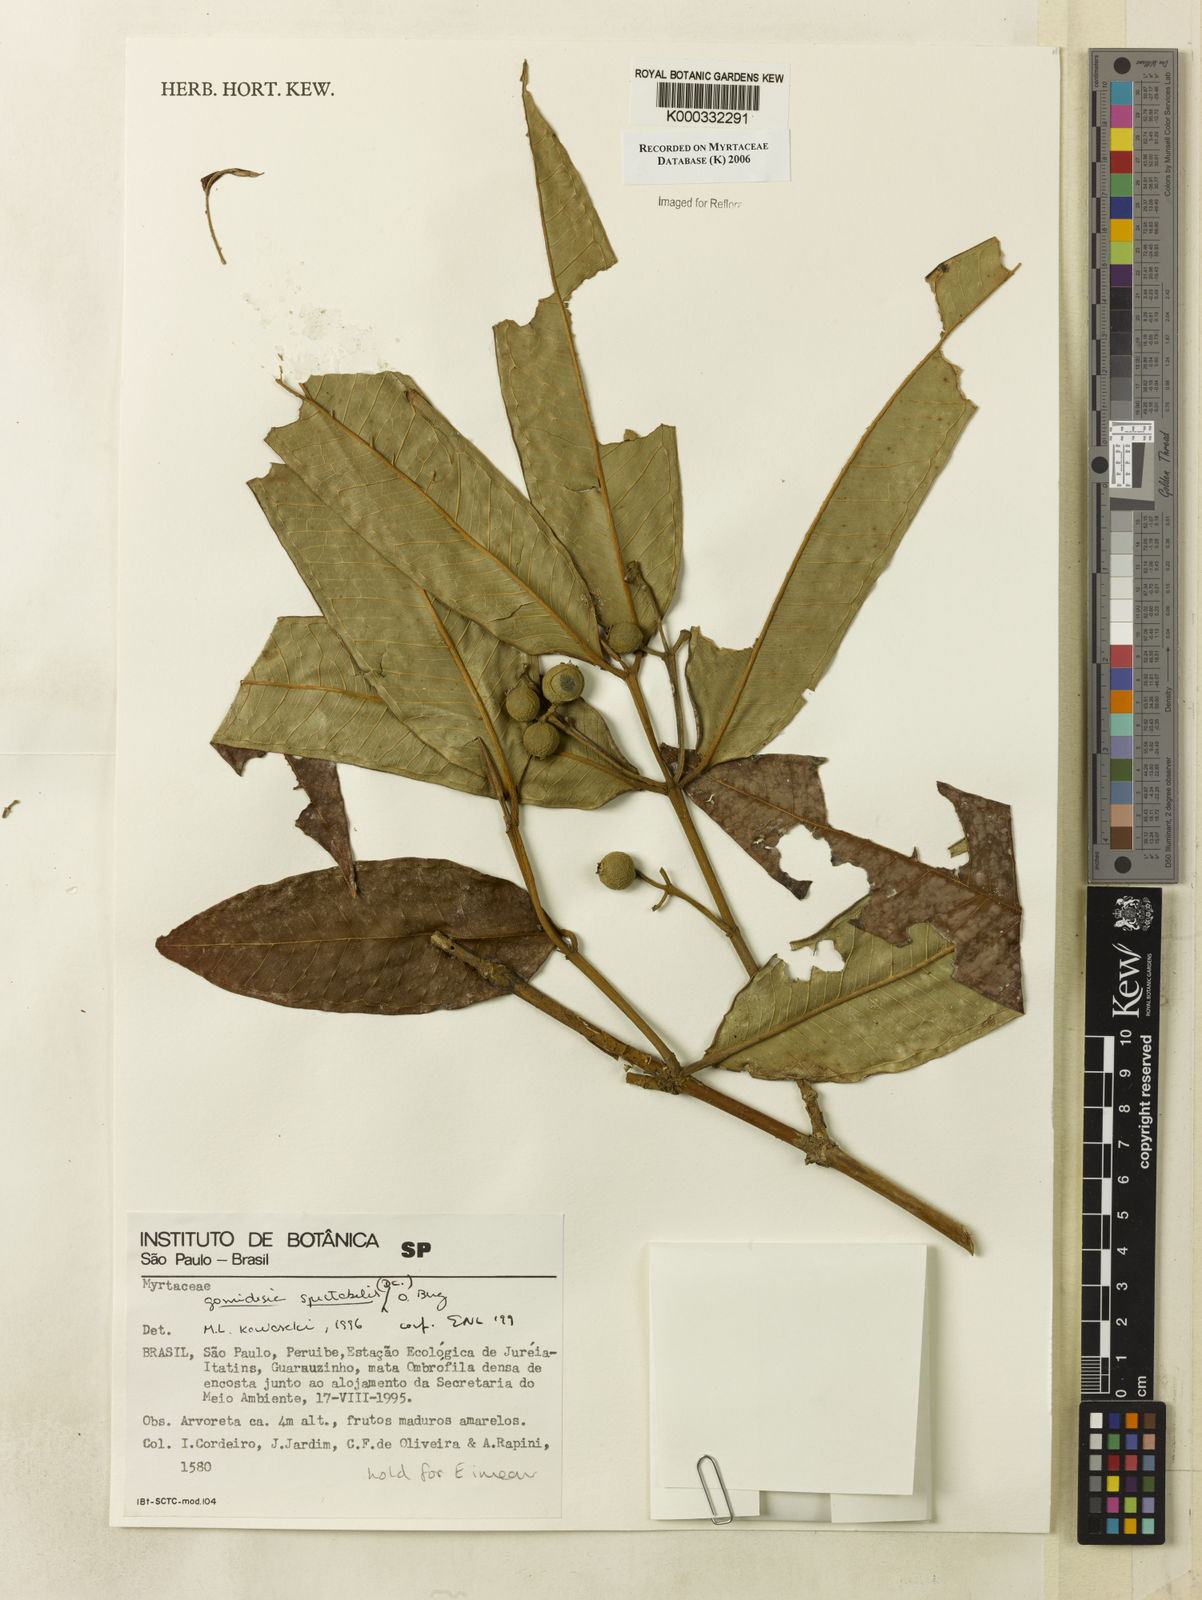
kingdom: Plantae
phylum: Tracheophyta
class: Magnoliopsida
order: Myrtales
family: Myrtaceae
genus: Myrcia
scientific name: Myrcia spectabilis
